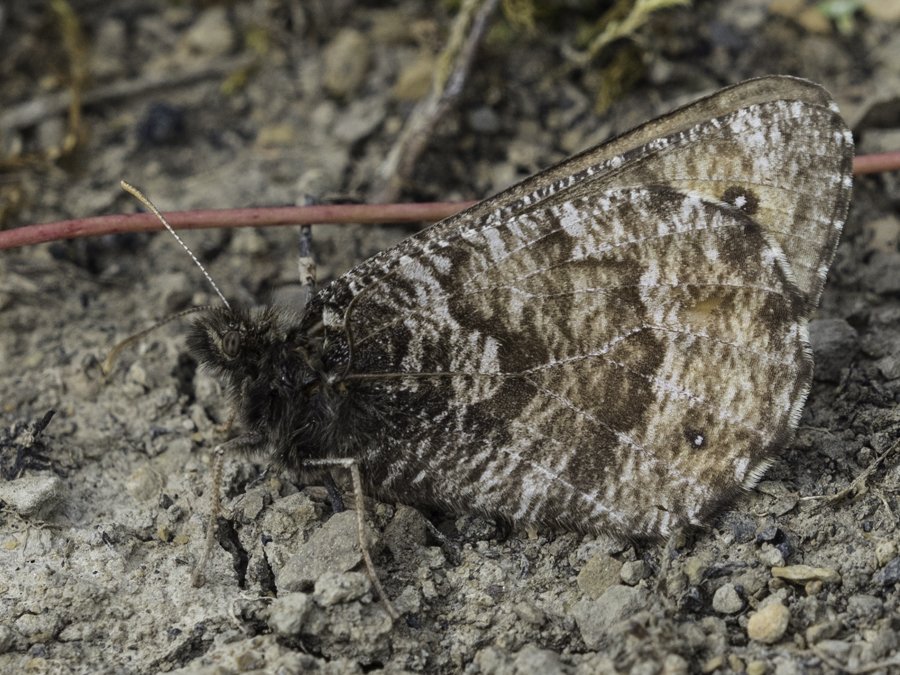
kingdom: Animalia
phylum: Arthropoda
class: Insecta
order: Lepidoptera
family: Nymphalidae
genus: Oeneis
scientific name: Oeneis chryxus
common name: Chryxus Arctic
